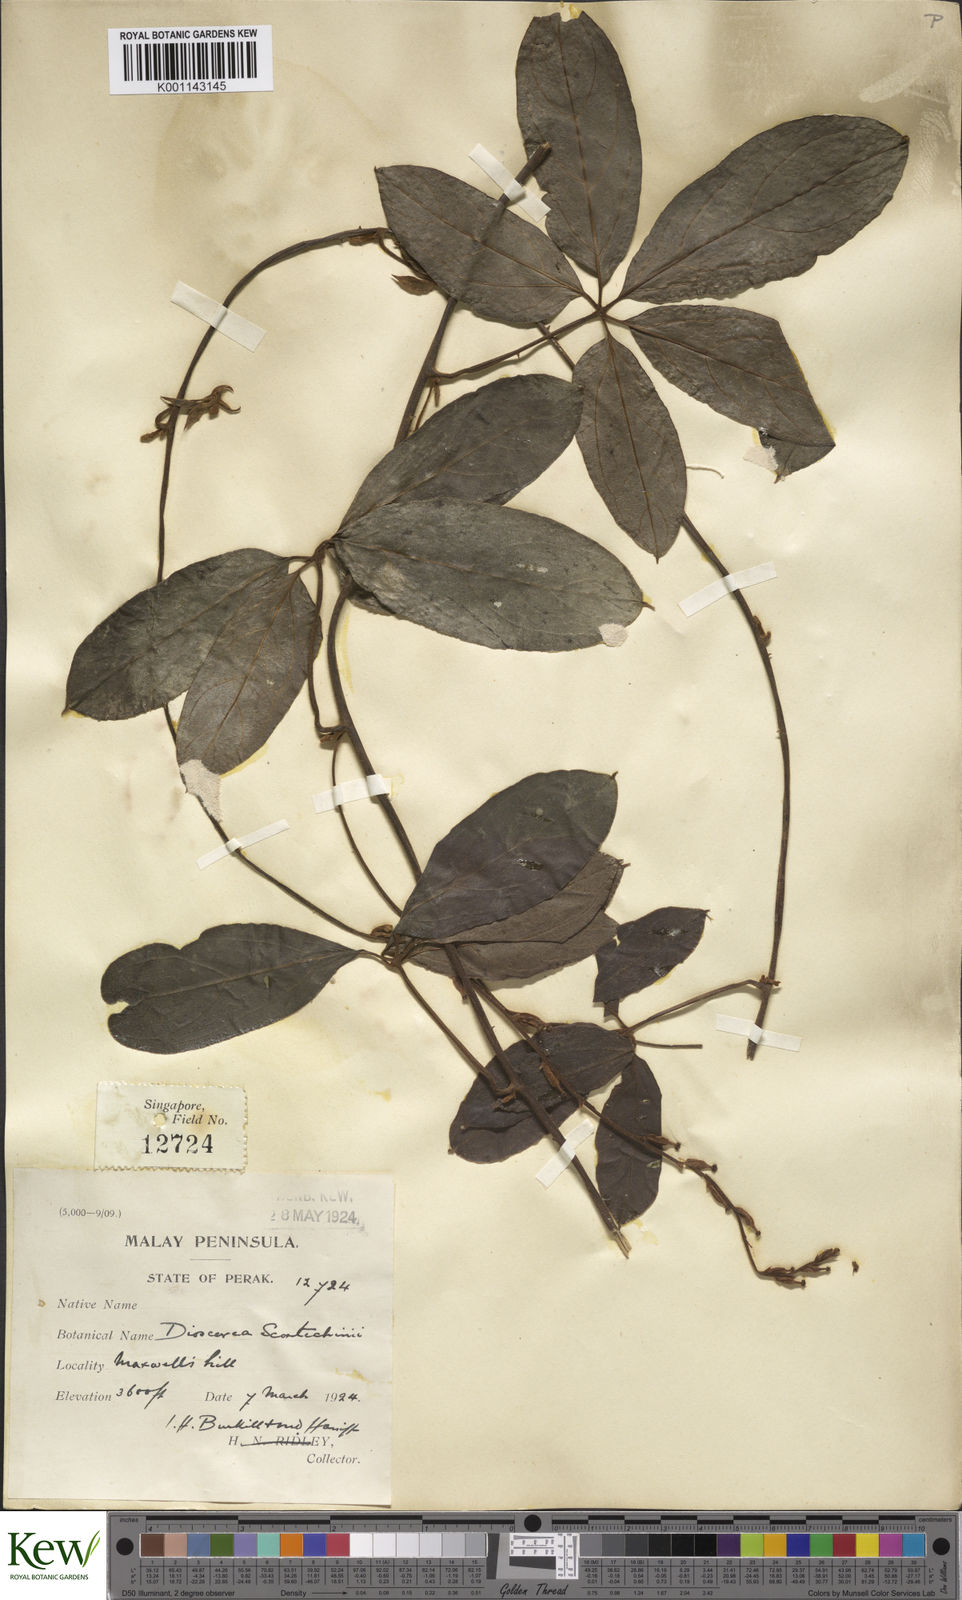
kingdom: Plantae
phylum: Tracheophyta
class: Liliopsida
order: Dioscoreales
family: Dioscoreaceae
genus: Dioscorea
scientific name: Dioscorea scortechinii
